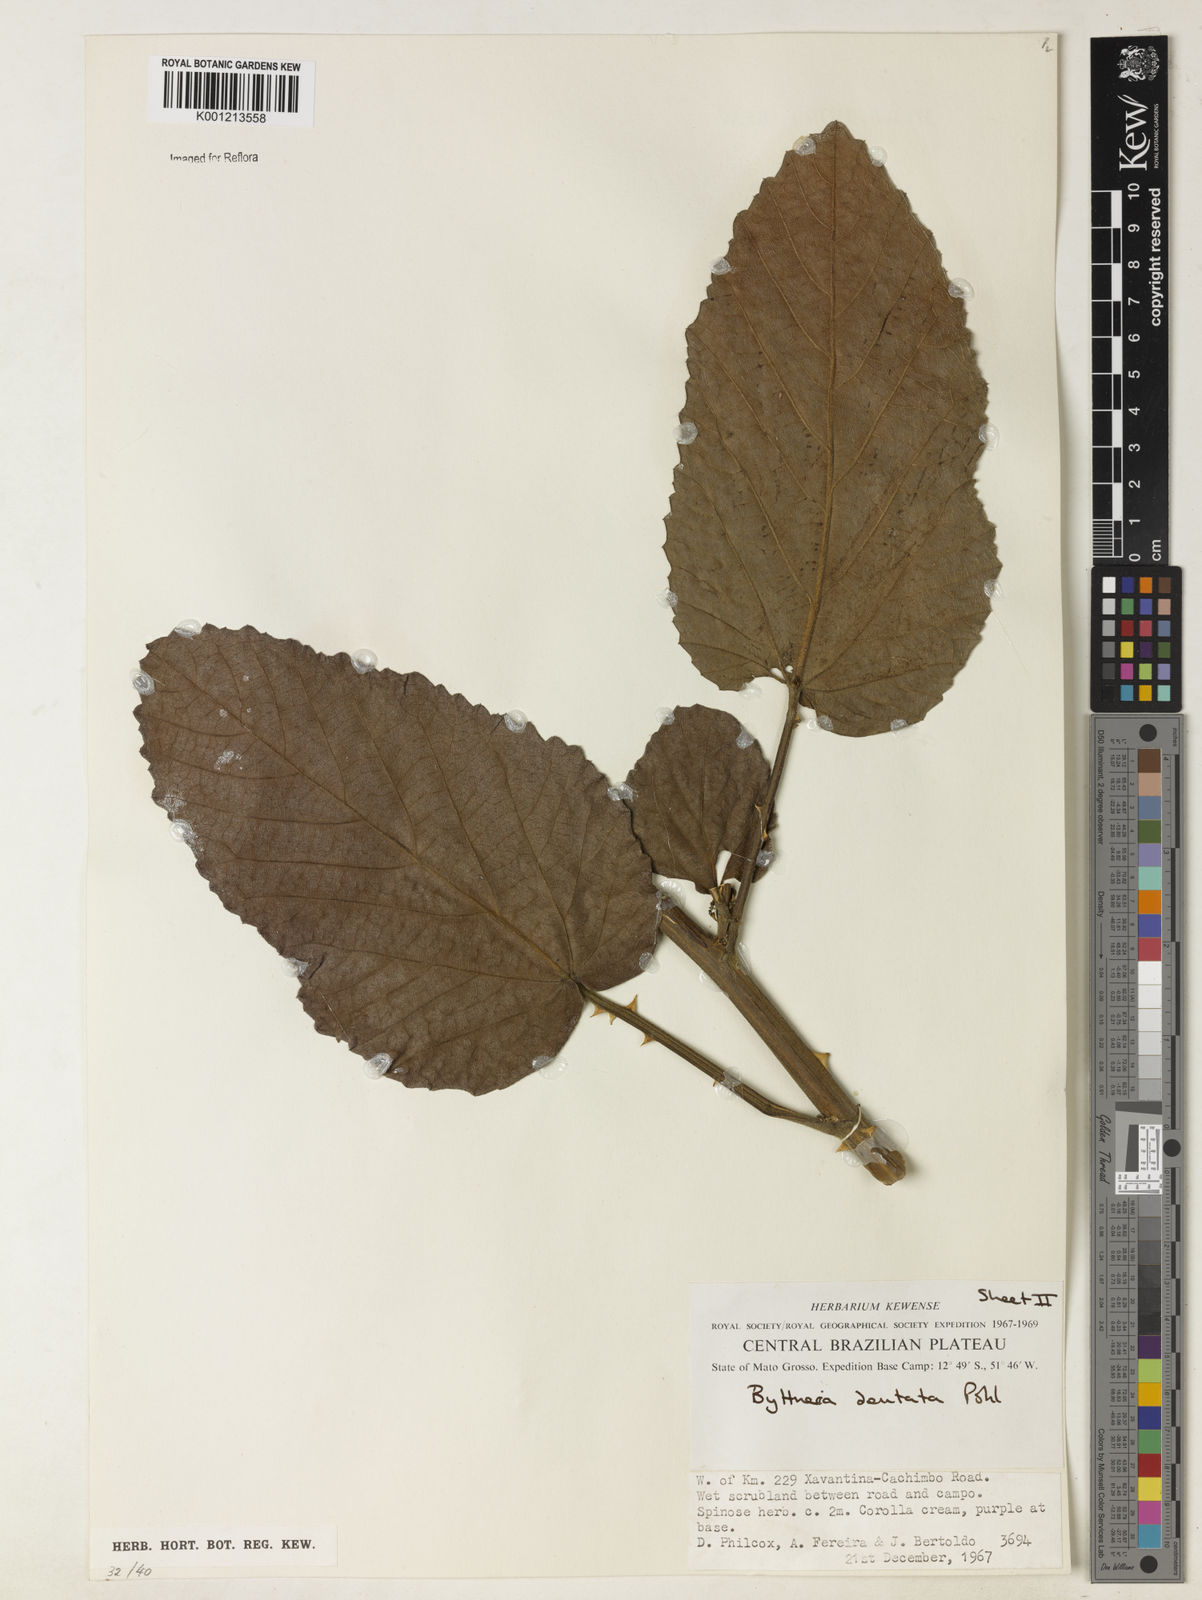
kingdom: Plantae
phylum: Tracheophyta
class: Magnoliopsida
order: Malvales
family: Malvaceae
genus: Byttneria
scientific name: Byttneria
